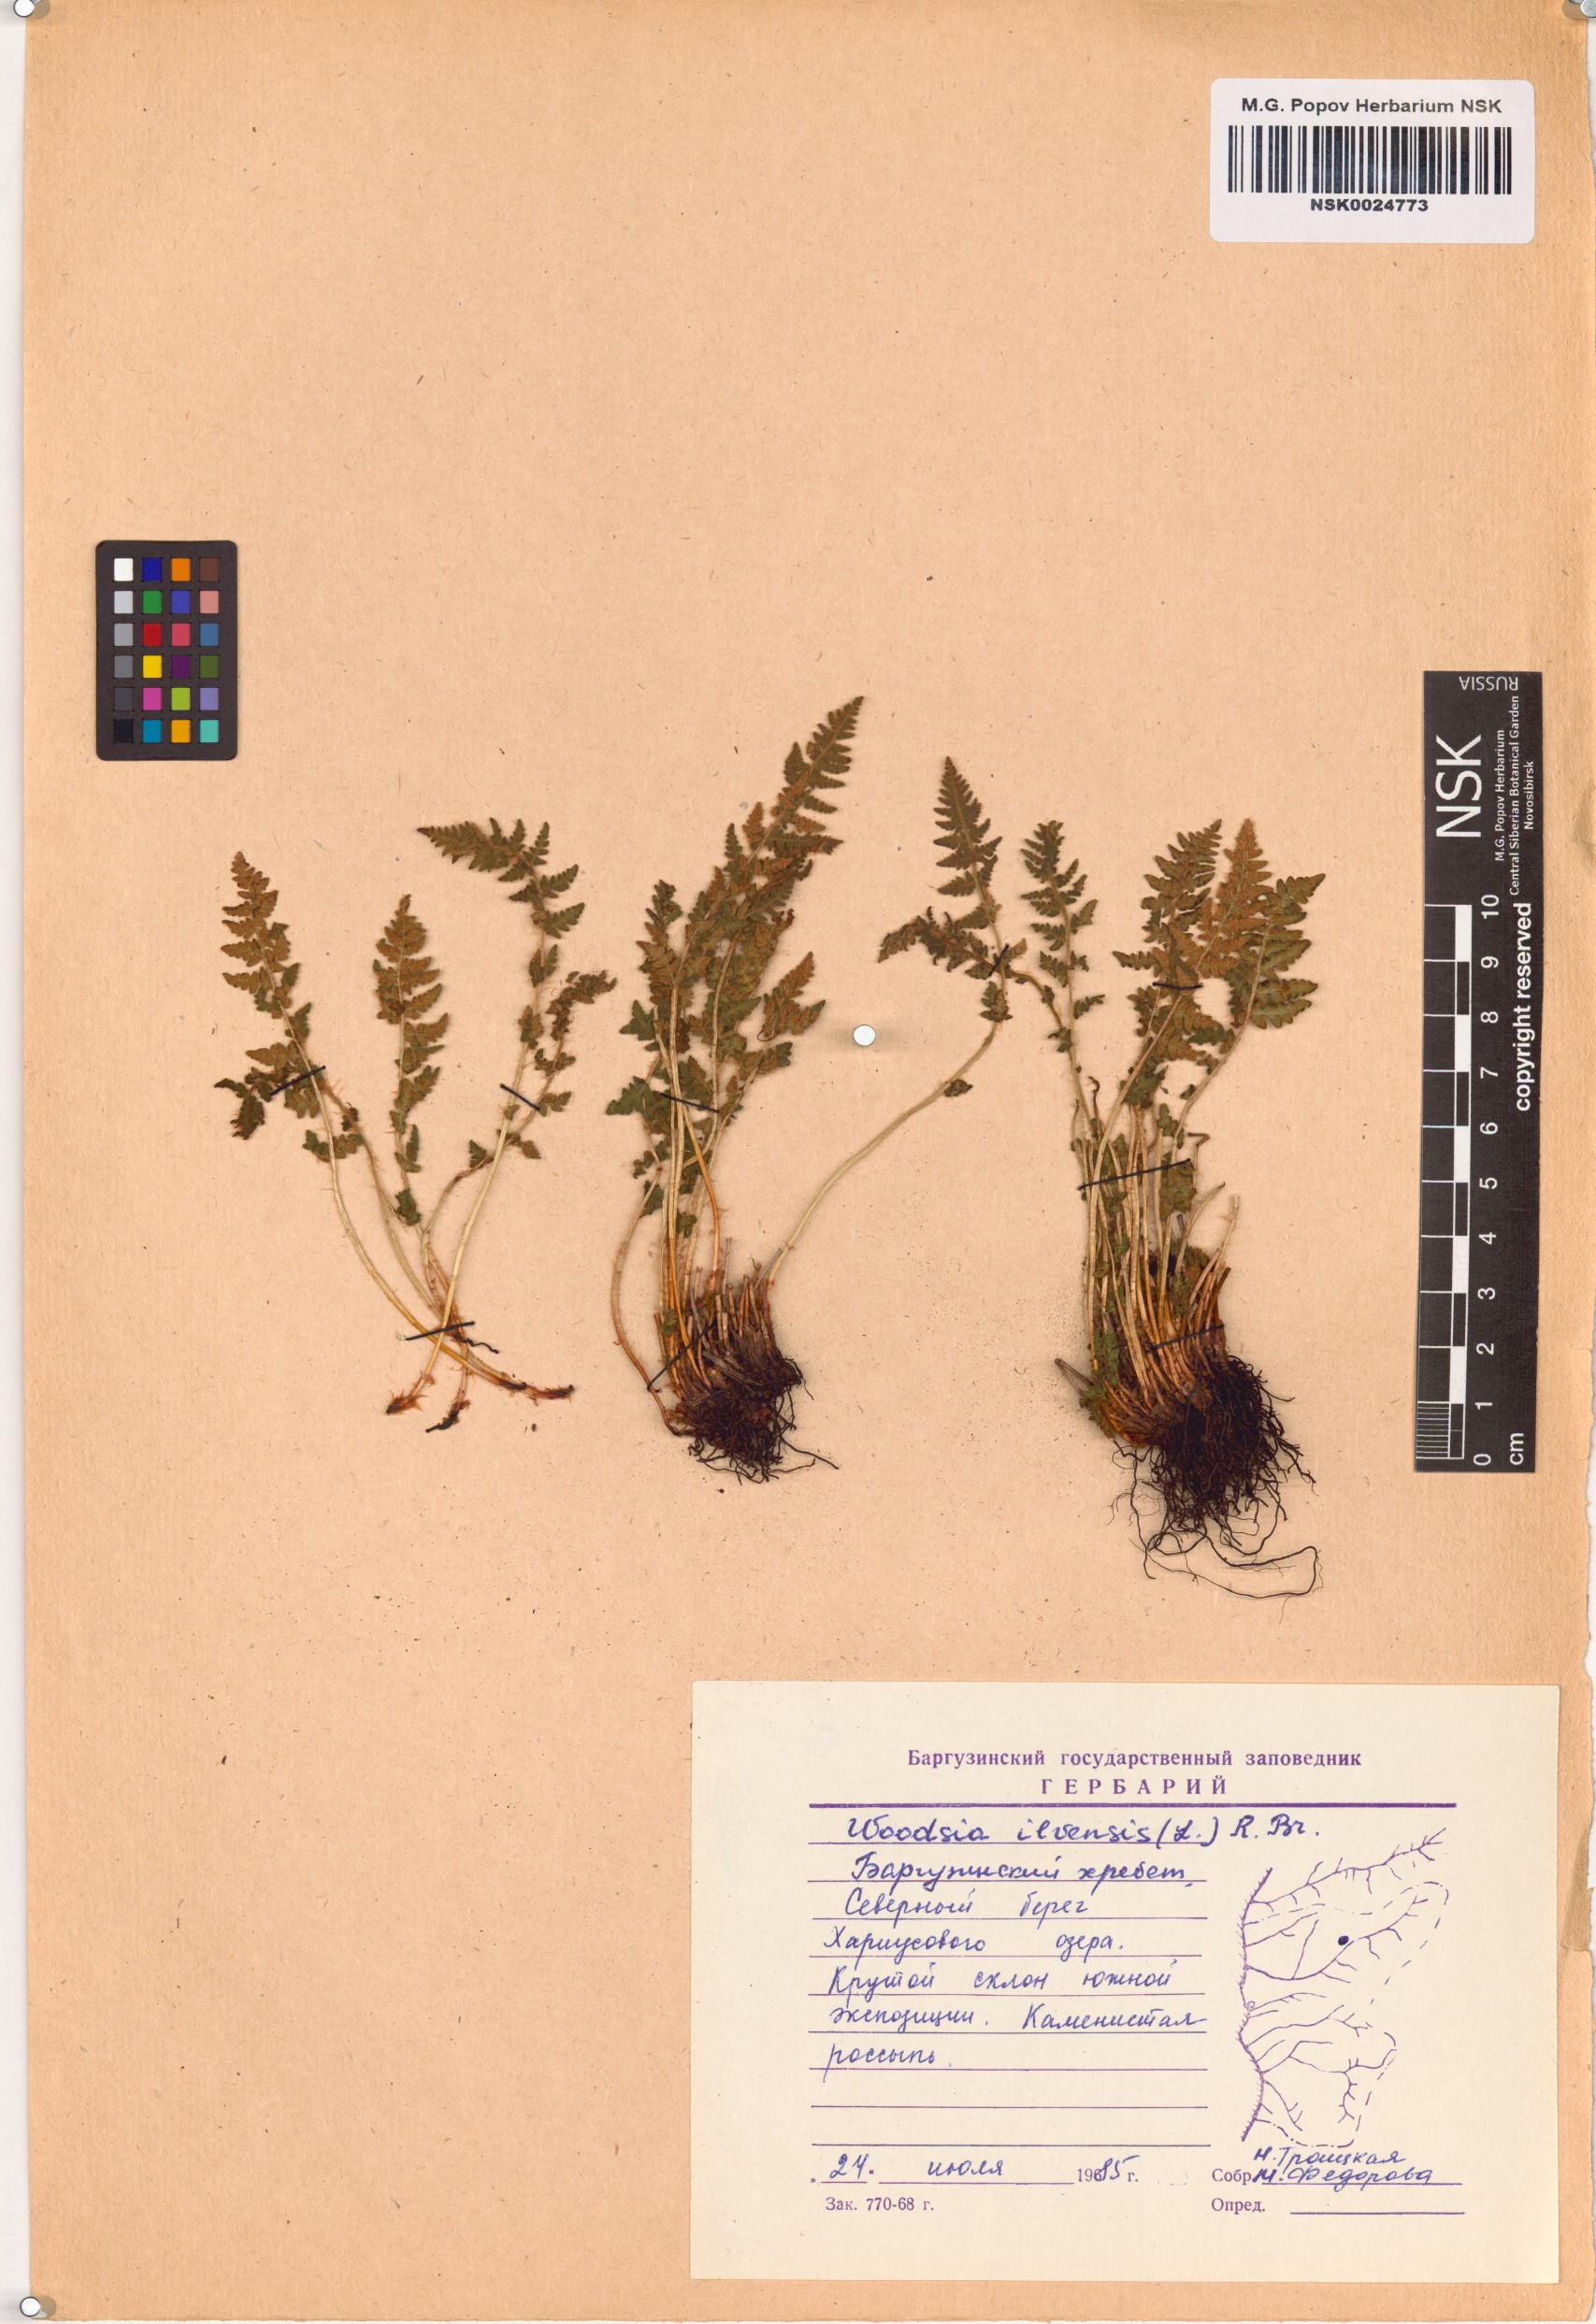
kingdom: Plantae
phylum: Tracheophyta
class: Polypodiopsida
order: Polypodiales
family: Woodsiaceae
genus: Woodsia
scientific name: Woodsia ilvensis
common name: Fragrant woodsia
